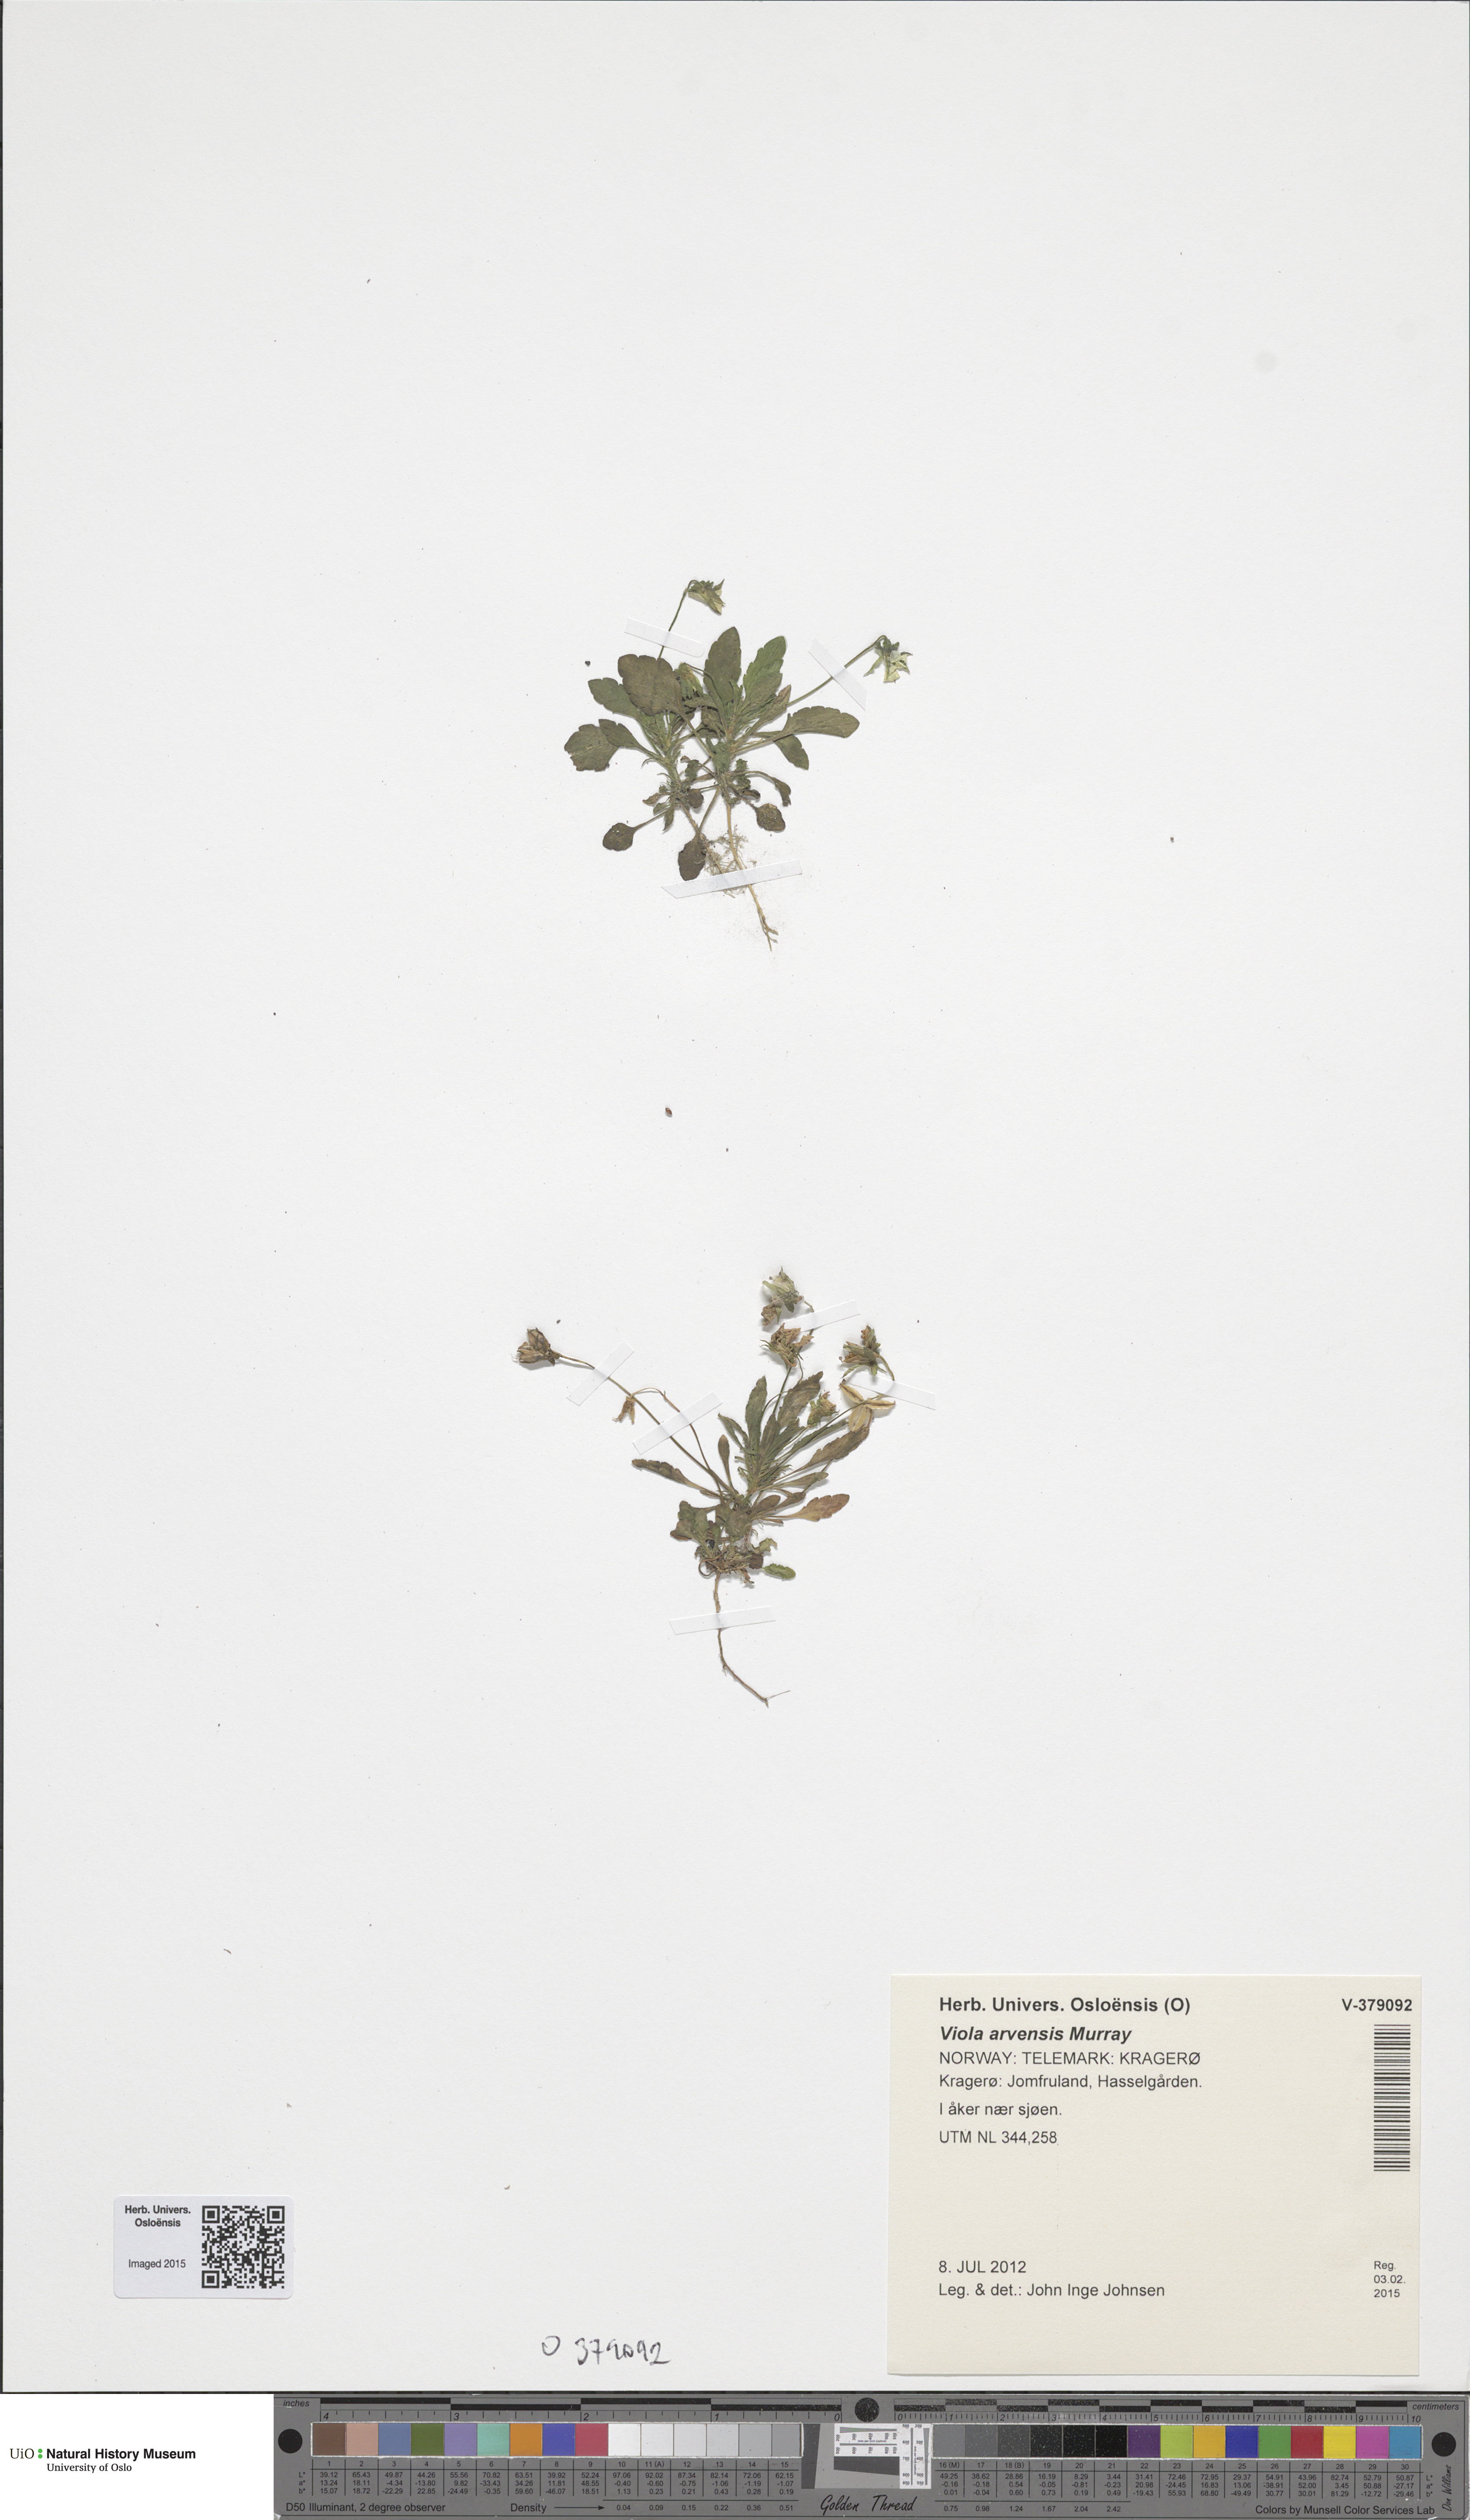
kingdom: Plantae
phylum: Tracheophyta
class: Magnoliopsida
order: Malpighiales
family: Violaceae
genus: Viola
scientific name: Viola arvensis
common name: Field pansy
